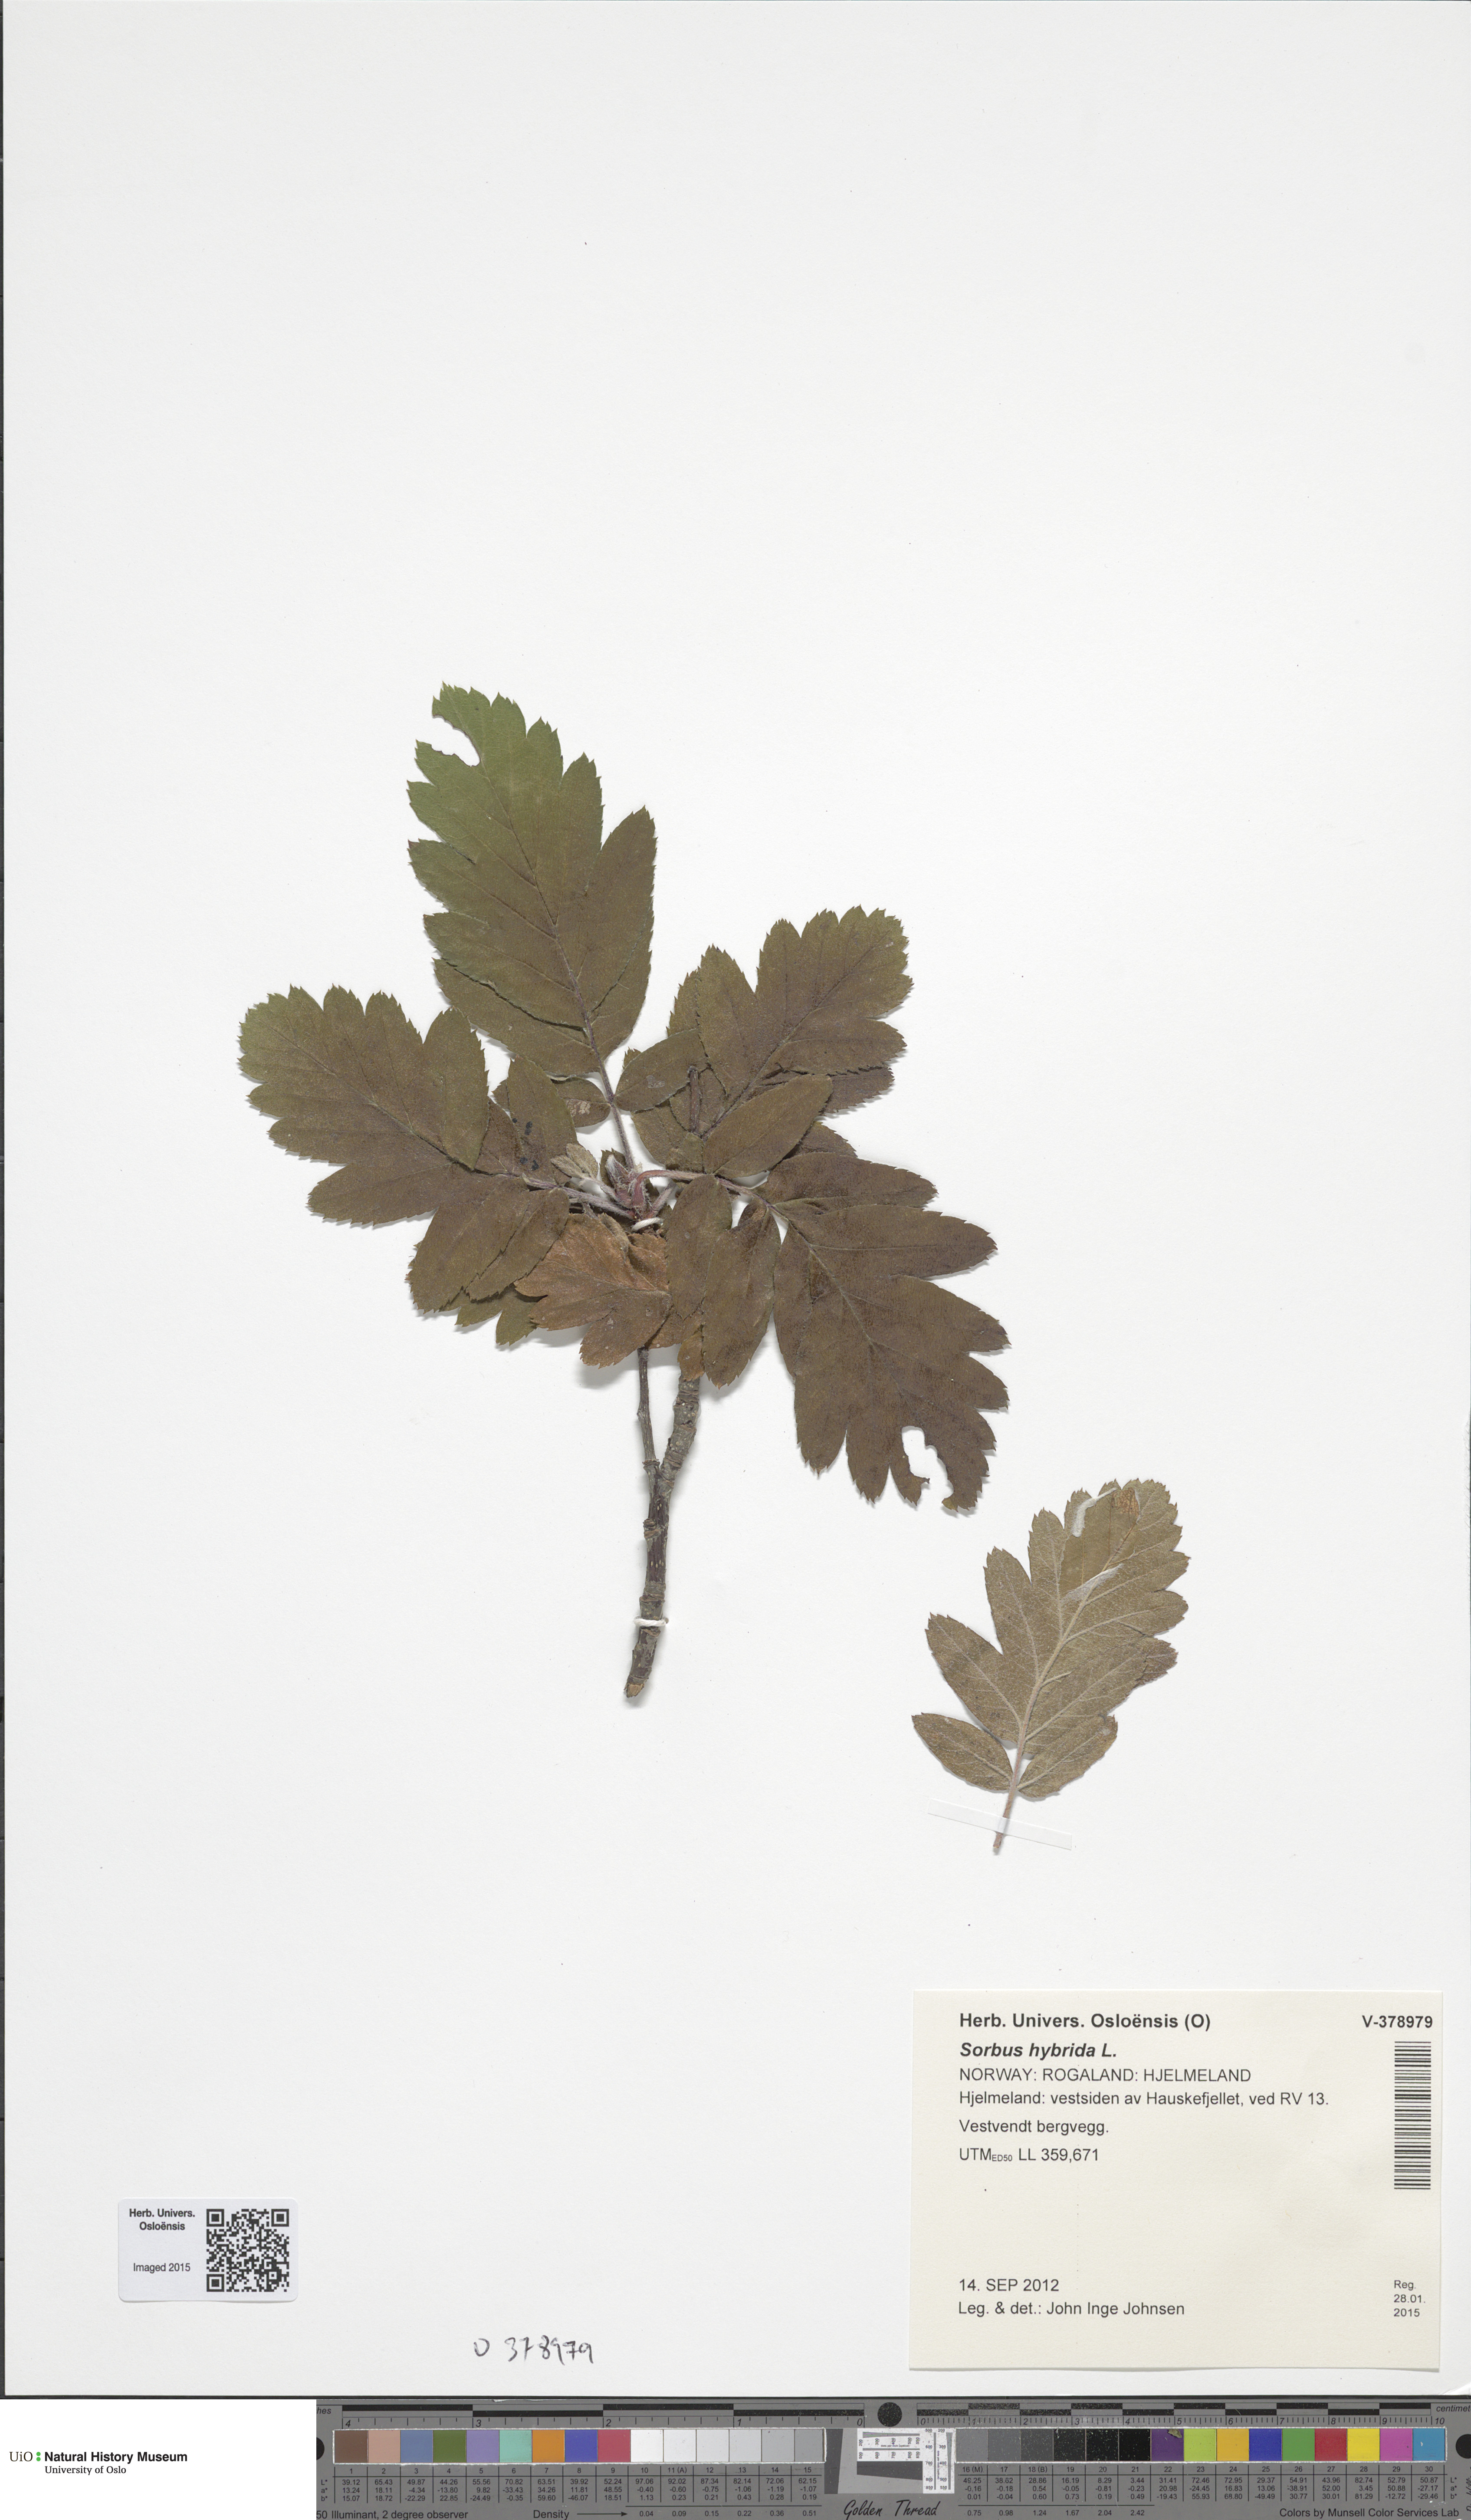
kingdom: Plantae
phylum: Tracheophyta
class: Magnoliopsida
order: Rosales
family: Rosaceae
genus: Hedlundia
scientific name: Hedlundia hybrida
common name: Swedish service-tree
